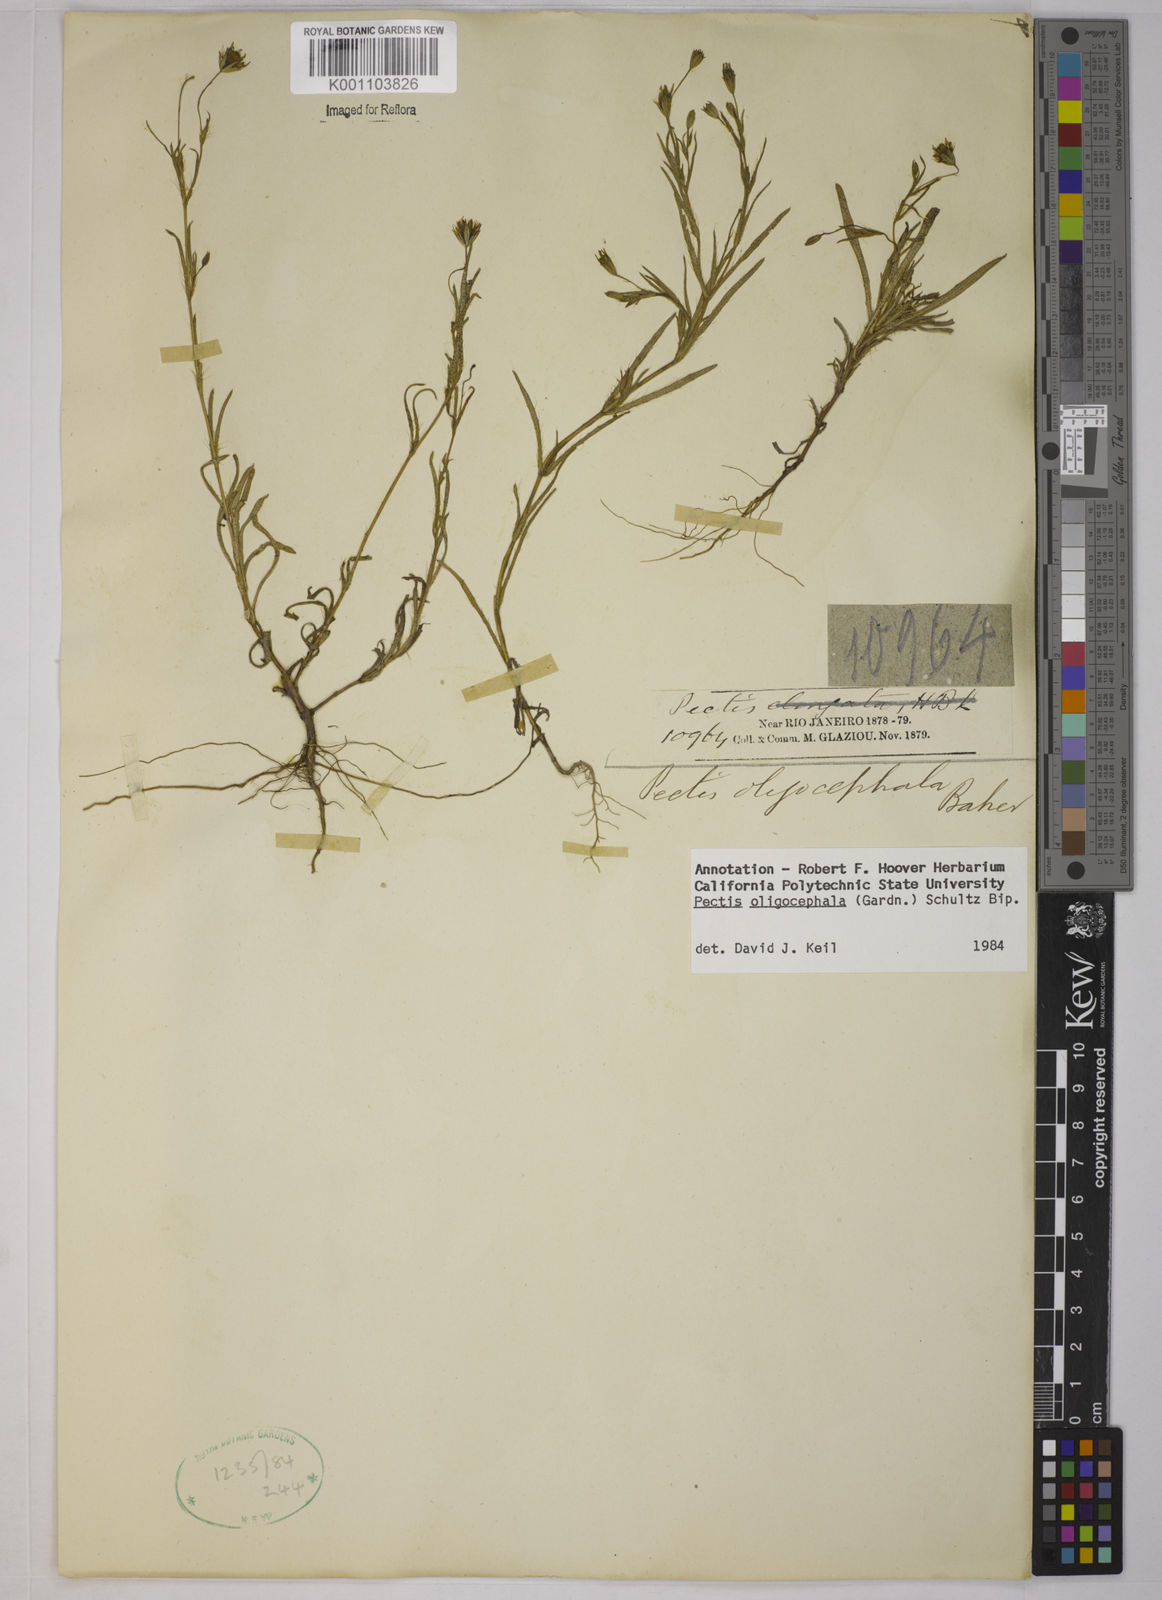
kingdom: Plantae
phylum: Tracheophyta
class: Magnoliopsida
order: Asterales
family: Asteraceae
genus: Pectis
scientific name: Pectis oligocephala
